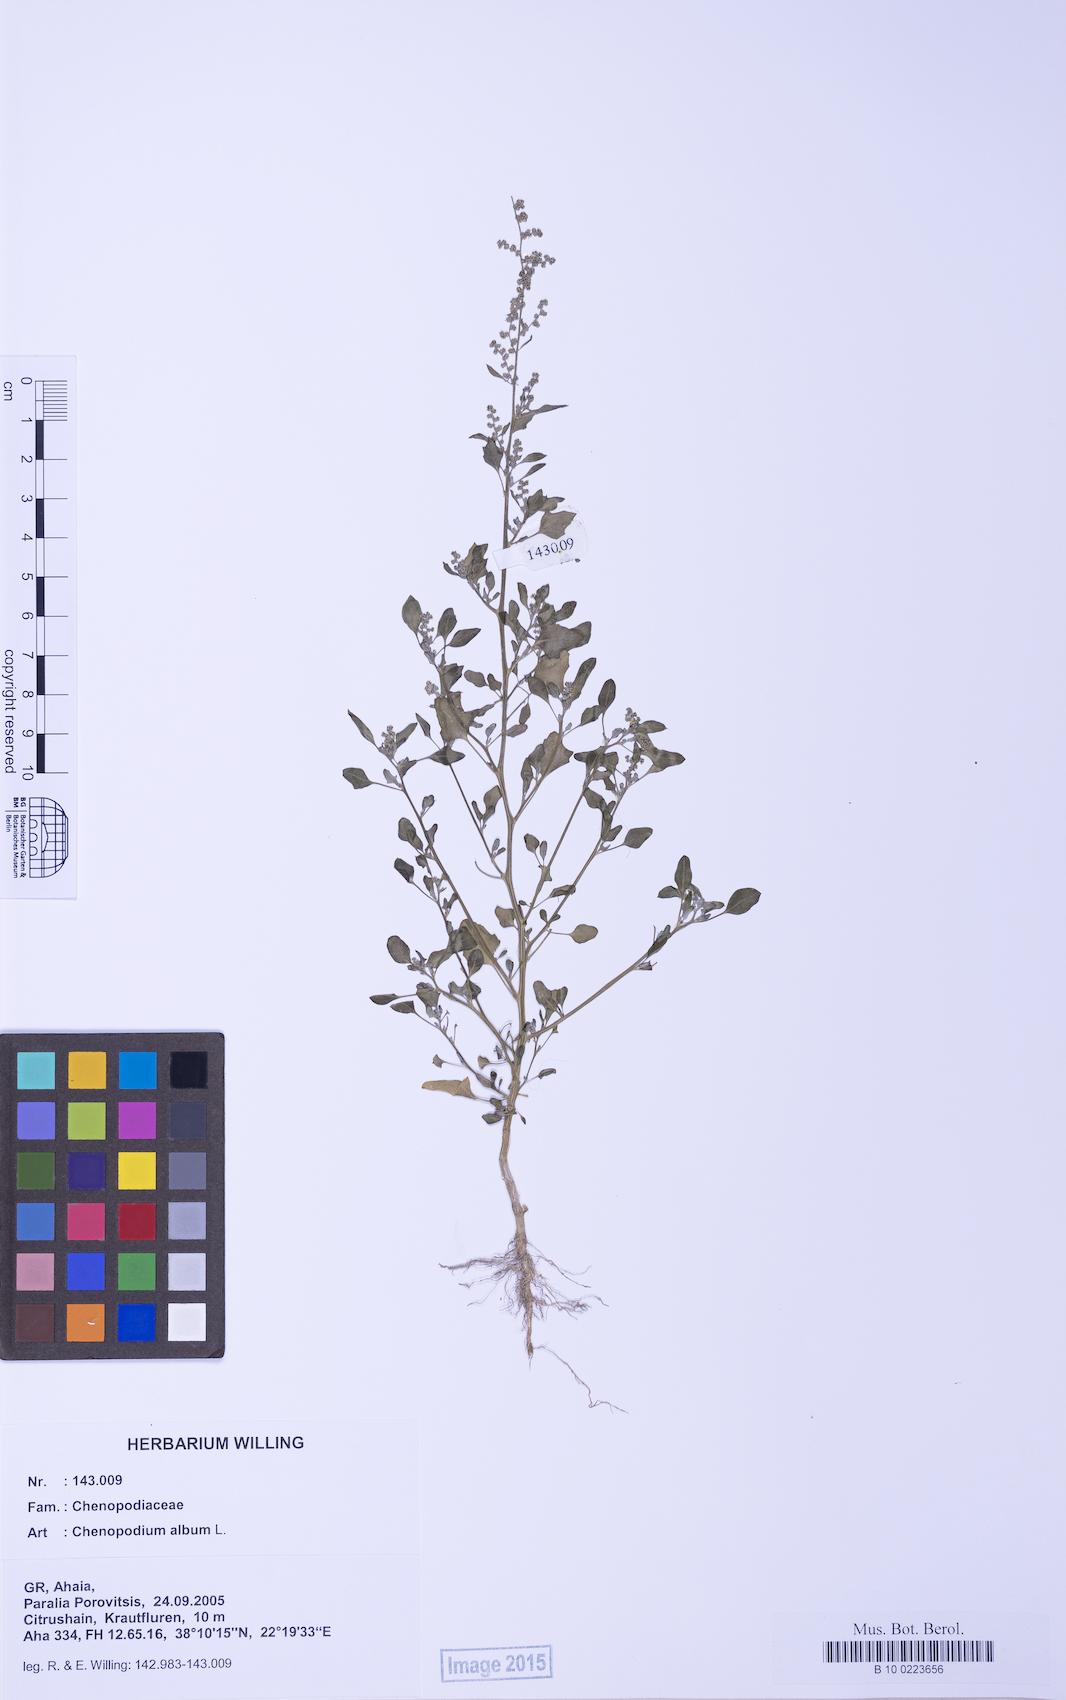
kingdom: Plantae
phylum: Tracheophyta
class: Magnoliopsida
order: Caryophyllales
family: Amaranthaceae
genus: Chenopodium
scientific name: Chenopodium striatiforme
